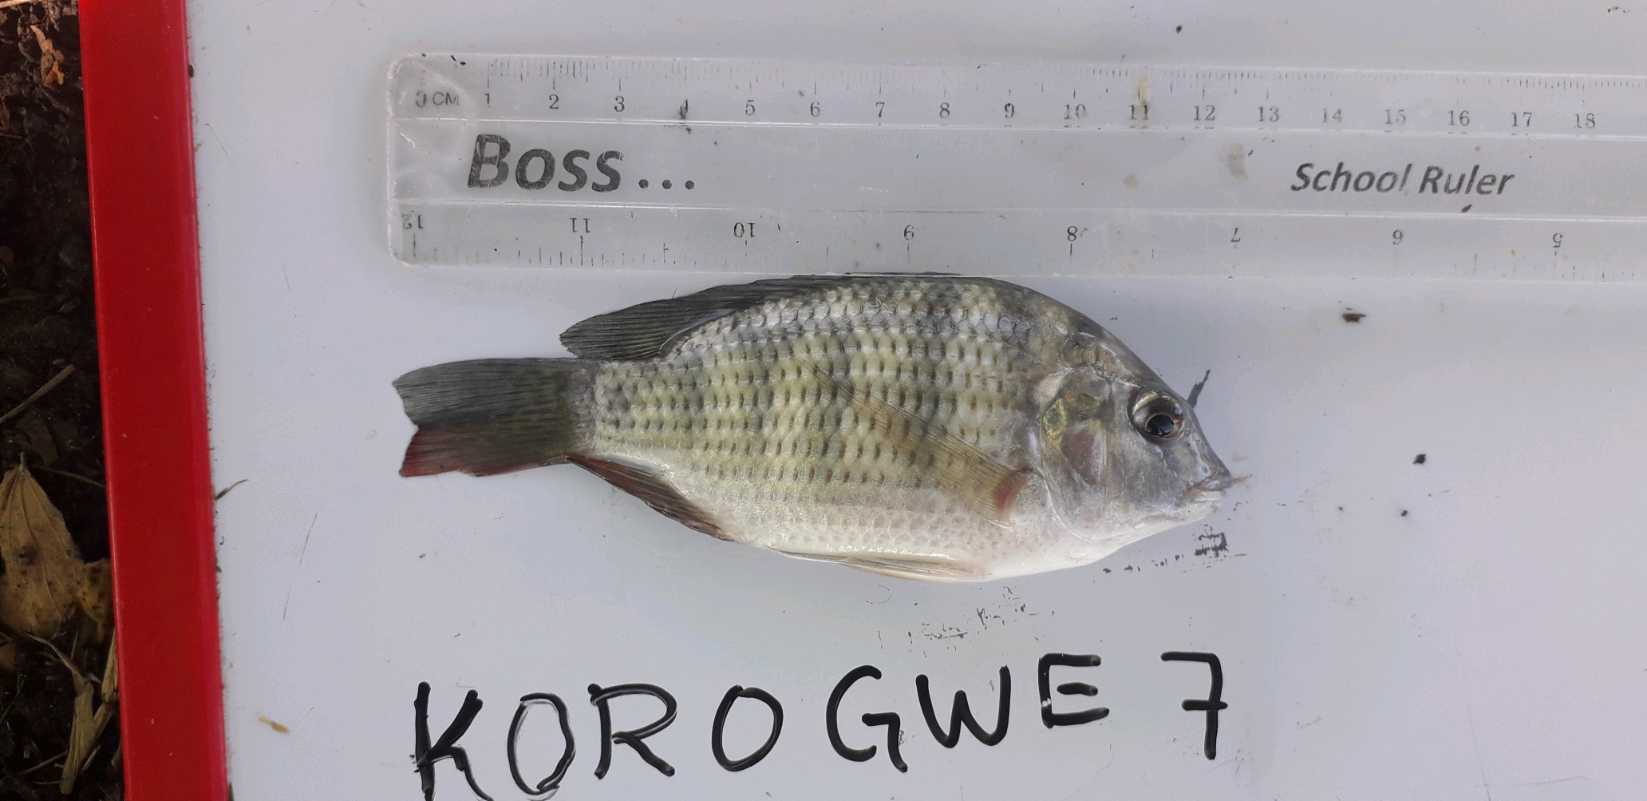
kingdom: Animalia
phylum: Chordata
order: Perciformes
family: Cichlidae
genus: Coptodon
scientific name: Coptodon rendalli
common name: Redbreast tilapia
